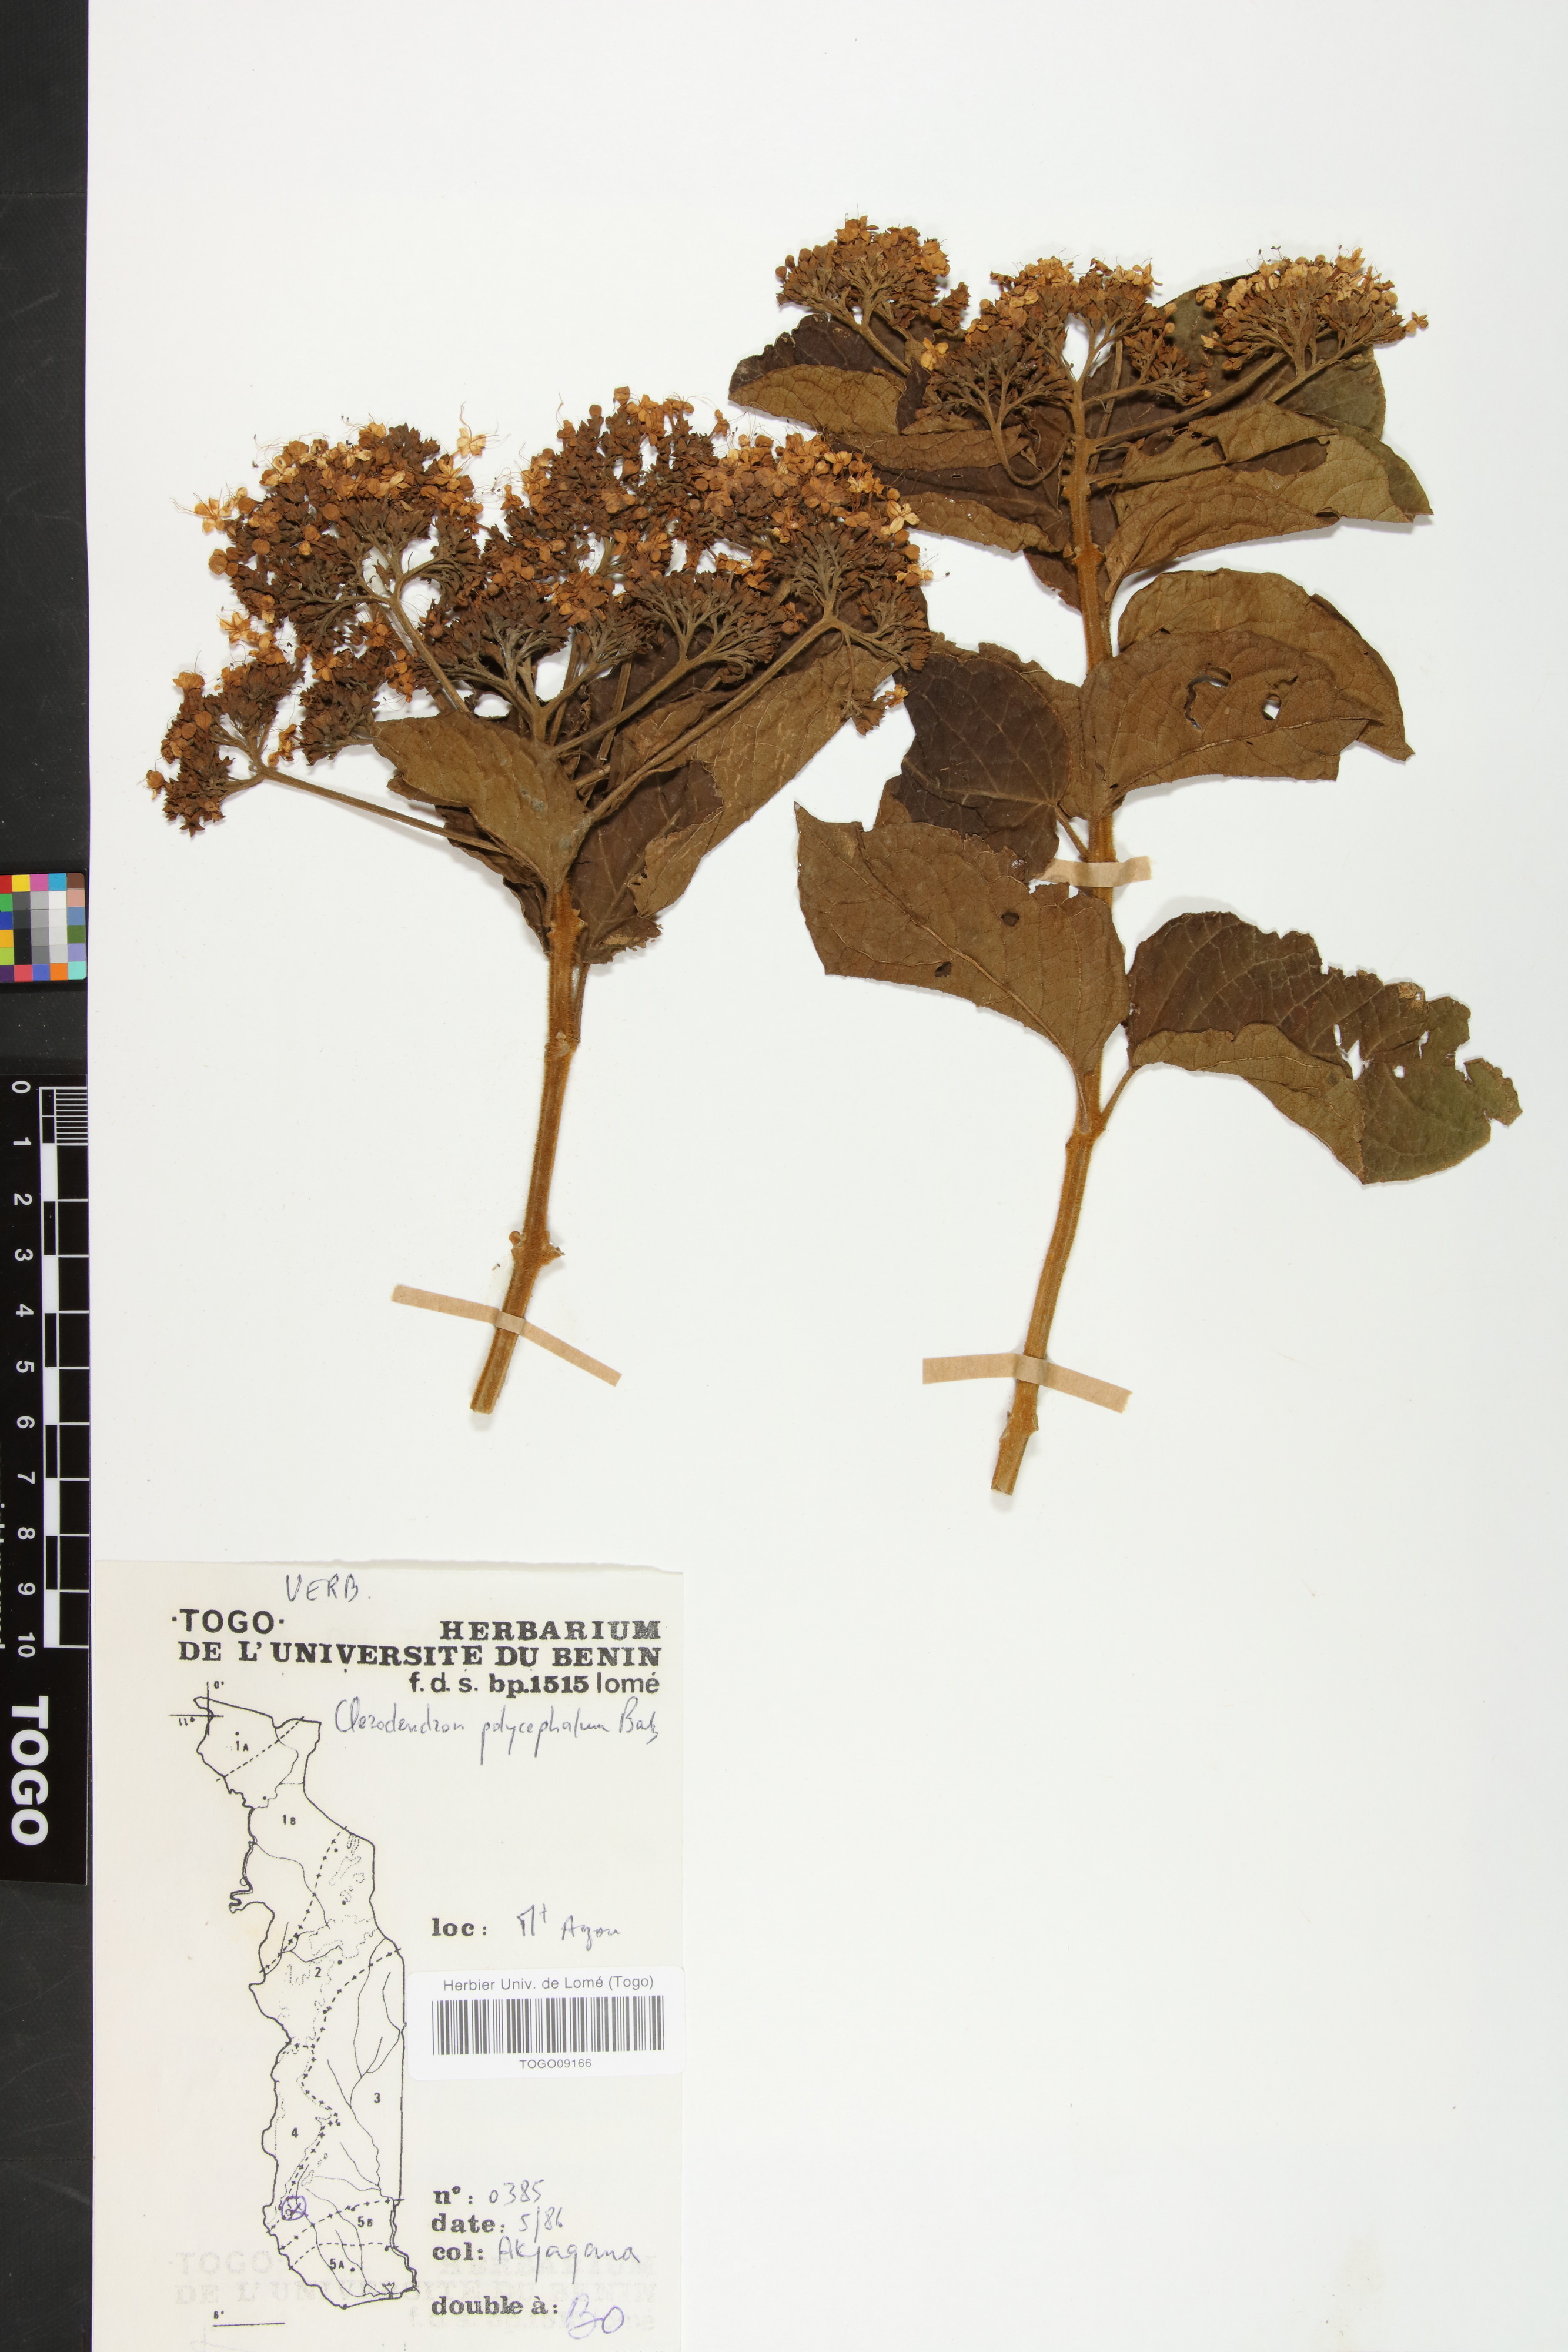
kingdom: Plantae
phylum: Tracheophyta
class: Magnoliopsida
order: Lamiales
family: Lamiaceae
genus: Clerodendrum
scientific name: Clerodendrum polycephalum
